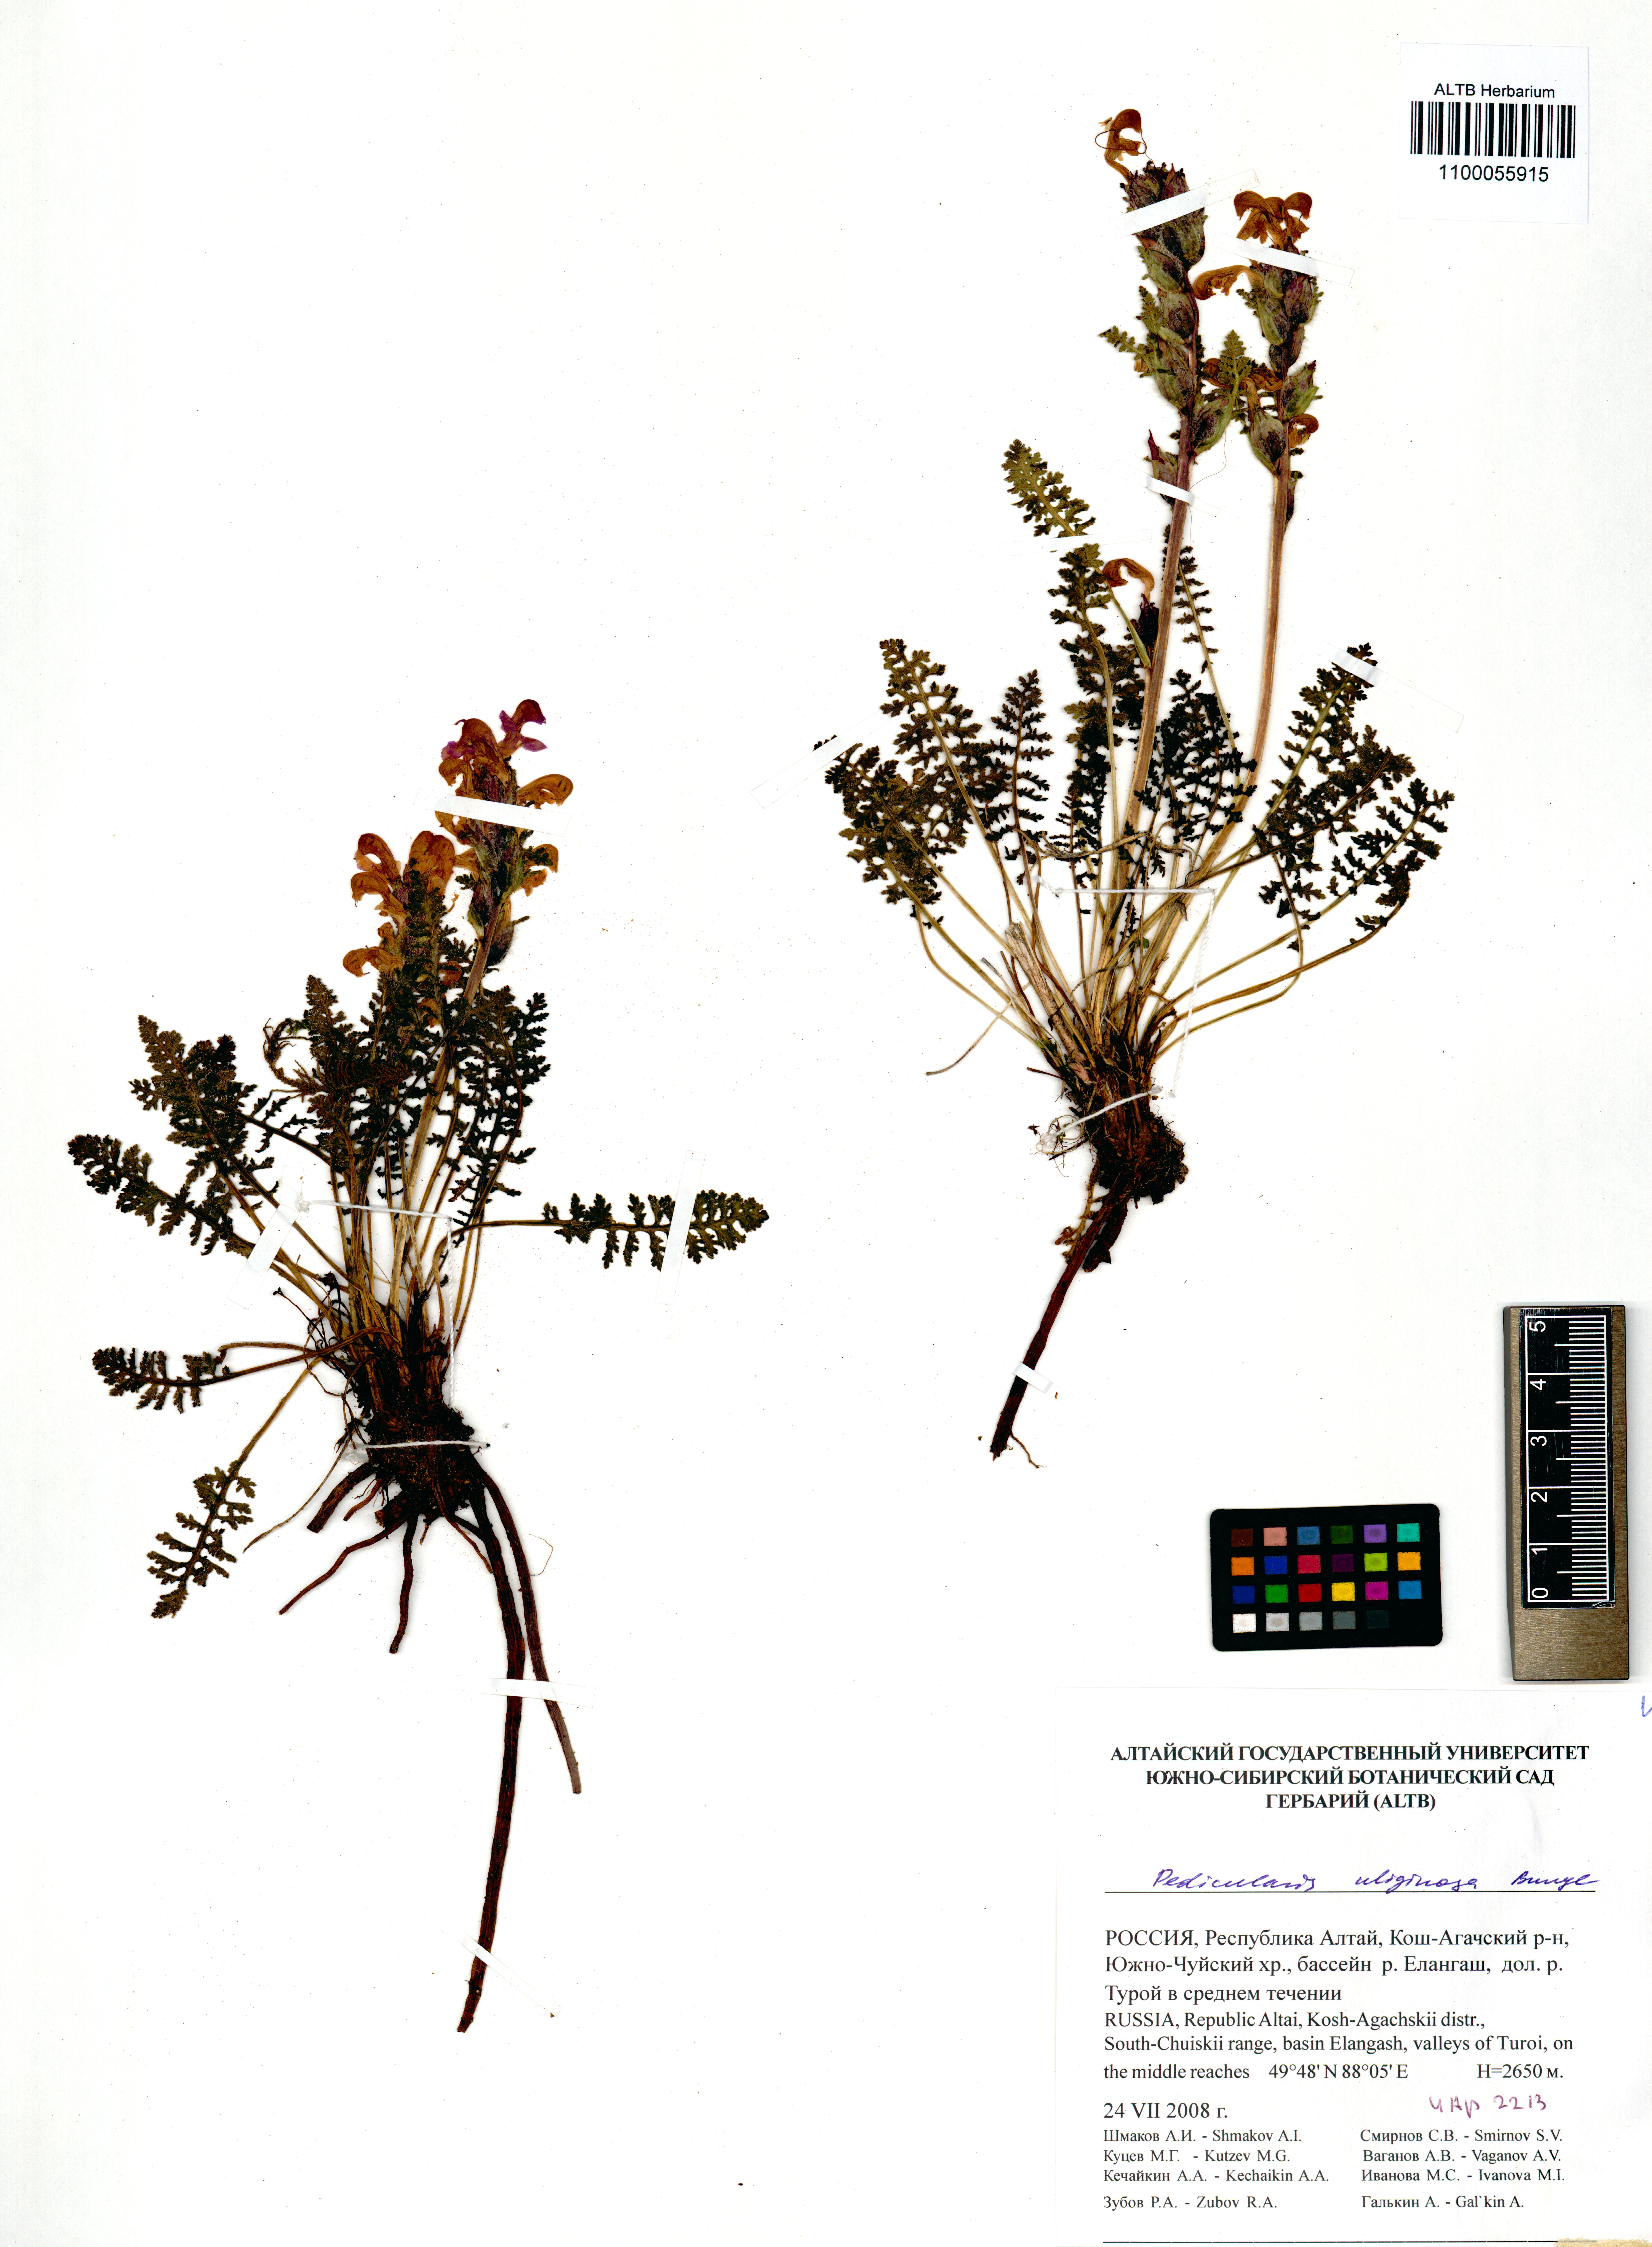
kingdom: Plantae
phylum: Tracheophyta
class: Magnoliopsida
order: Lamiales
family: Orobanchaceae
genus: Pedicularis
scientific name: Pedicularis uliginosa
